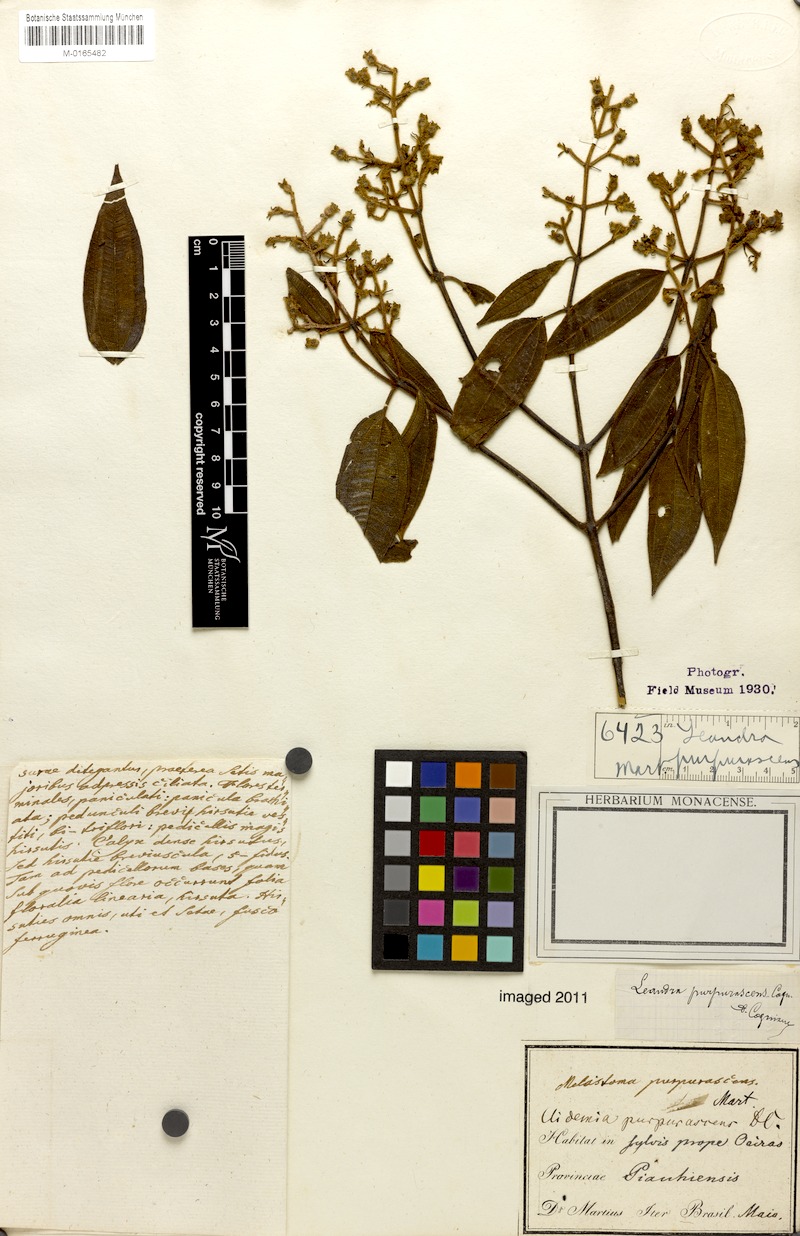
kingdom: Plantae
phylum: Tracheophyta
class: Magnoliopsida
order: Myrtales
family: Melastomataceae
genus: Miconia
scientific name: Miconia microstachya
